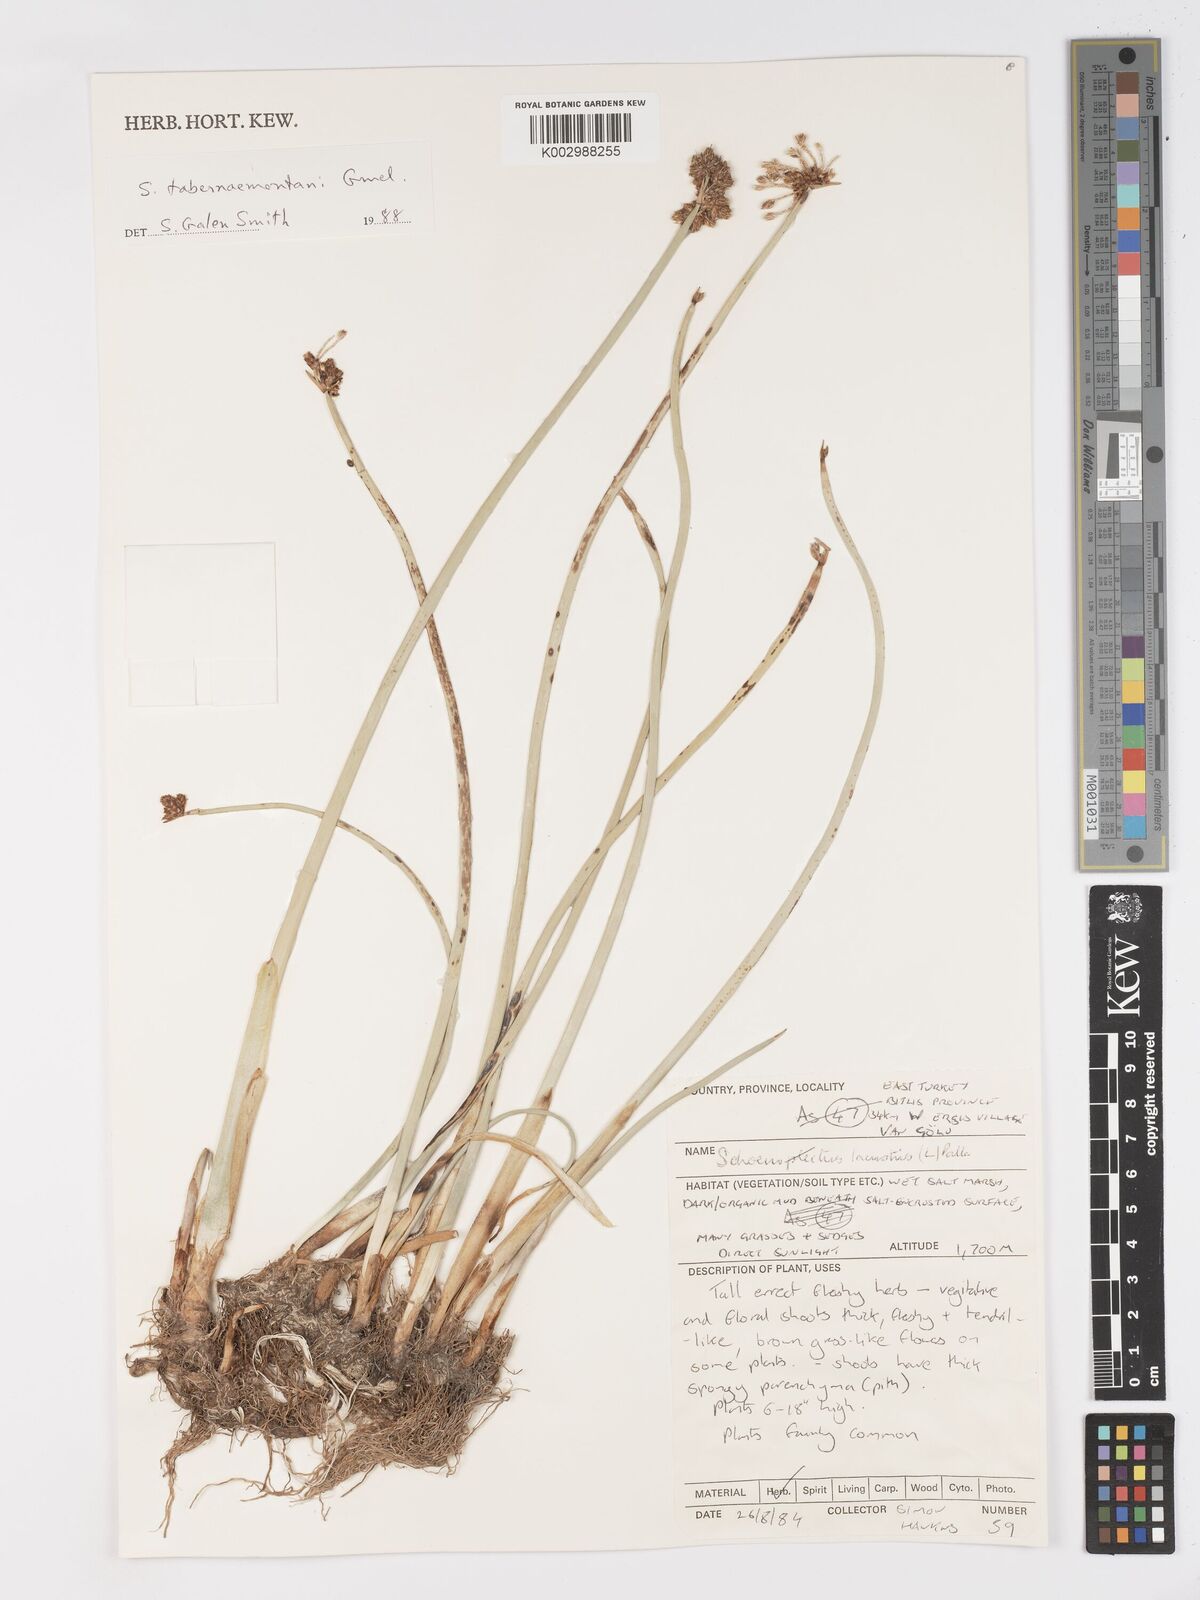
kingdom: Plantae
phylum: Tracheophyta
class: Liliopsida
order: Poales
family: Cyperaceae
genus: Schoenoplectus
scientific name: Schoenoplectus tabernaemontani
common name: Grey club-rush
